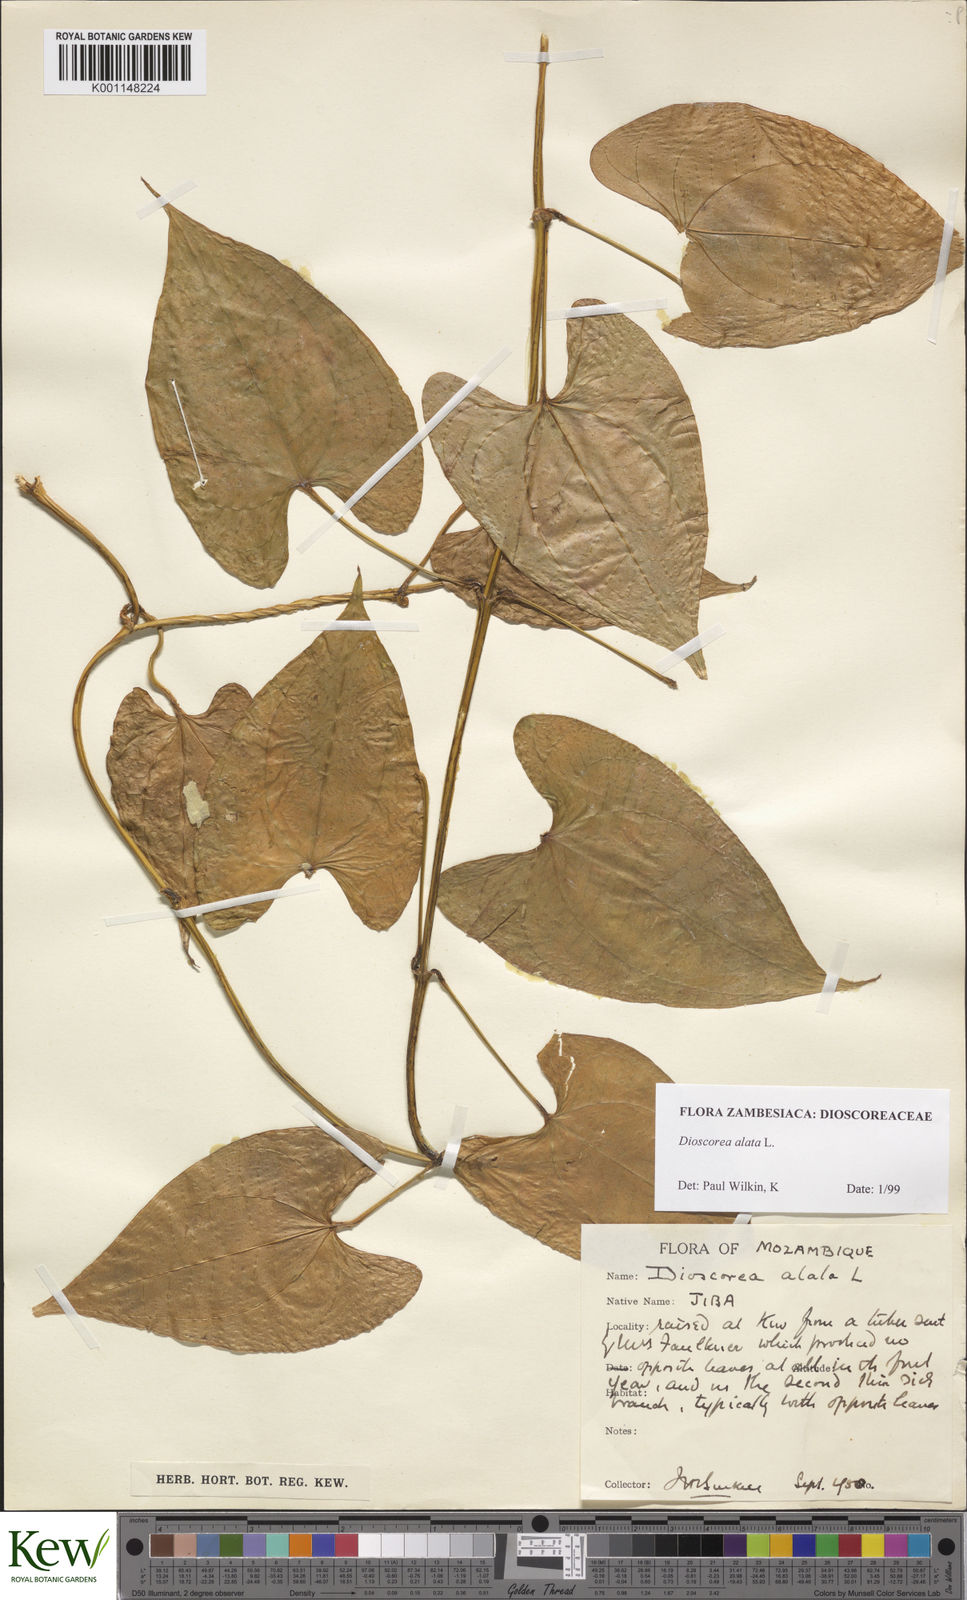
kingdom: Plantae
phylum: Tracheophyta
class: Liliopsida
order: Dioscoreales
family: Dioscoreaceae
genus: Dioscorea
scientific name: Dioscorea alata
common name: Water yam
